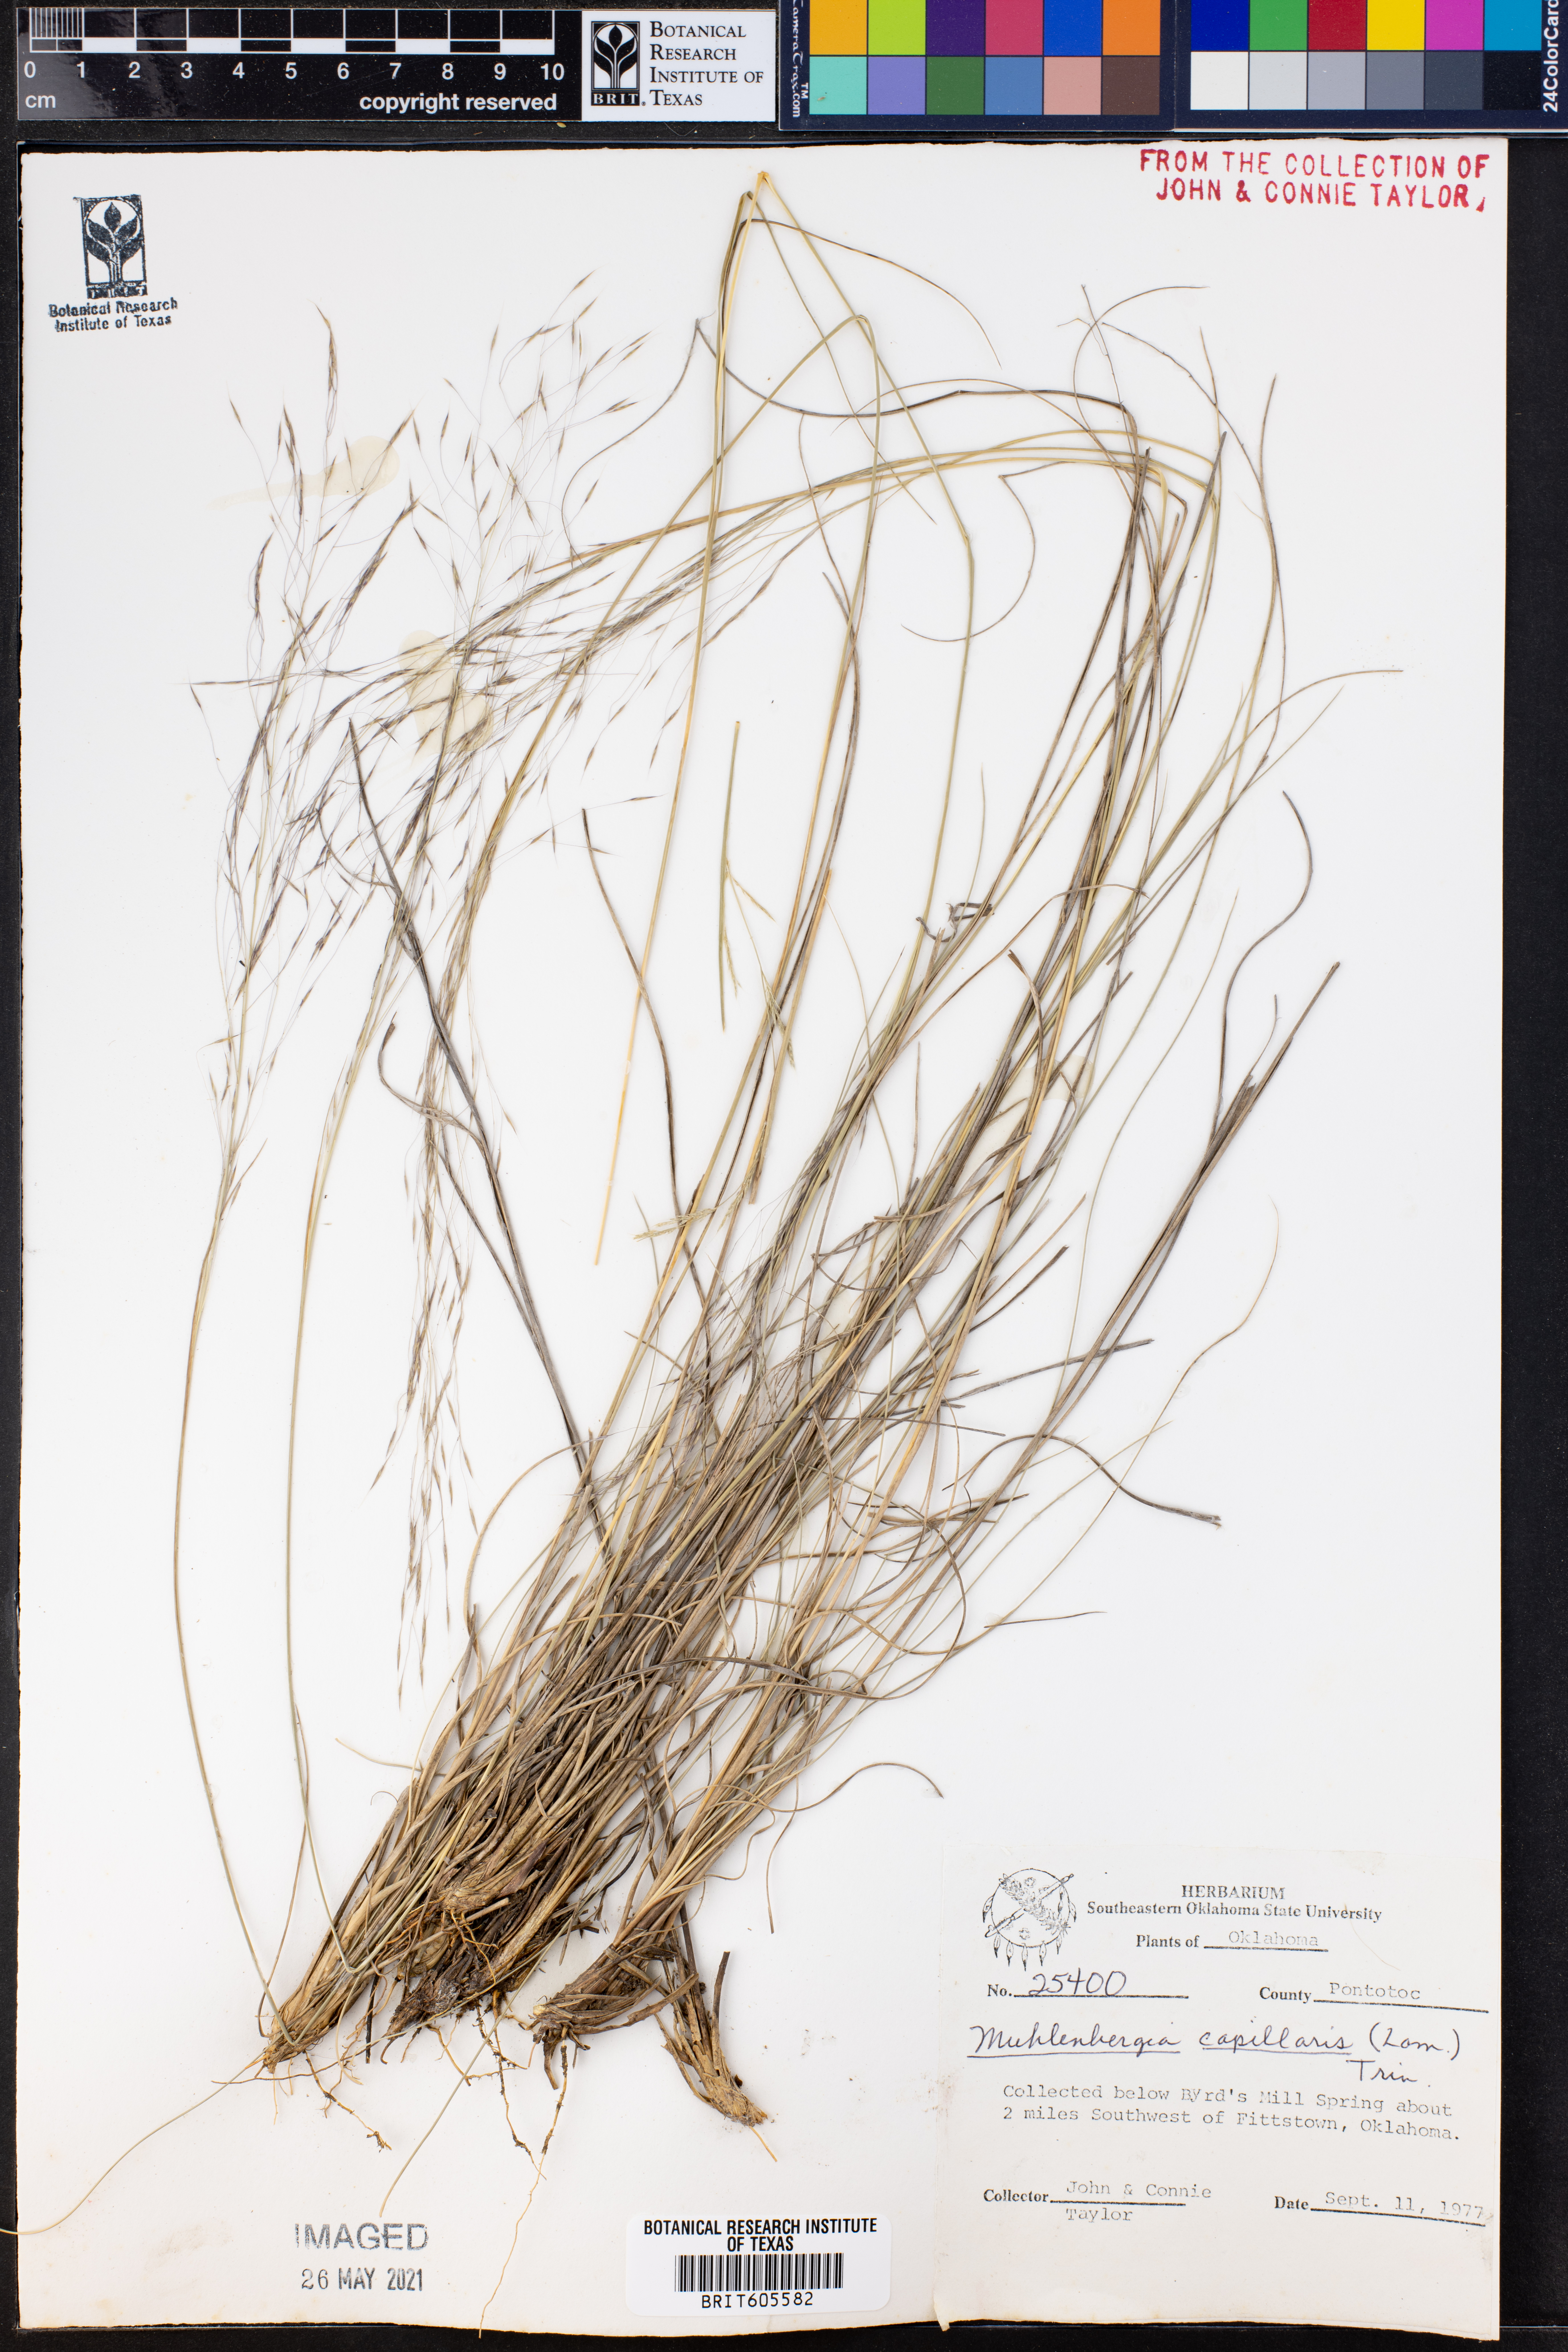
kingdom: Plantae
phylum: Tracheophyta
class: Liliopsida
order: Poales
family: Poaceae
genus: Muhlenbergia
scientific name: Muhlenbergia capillaris
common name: Purple grass
